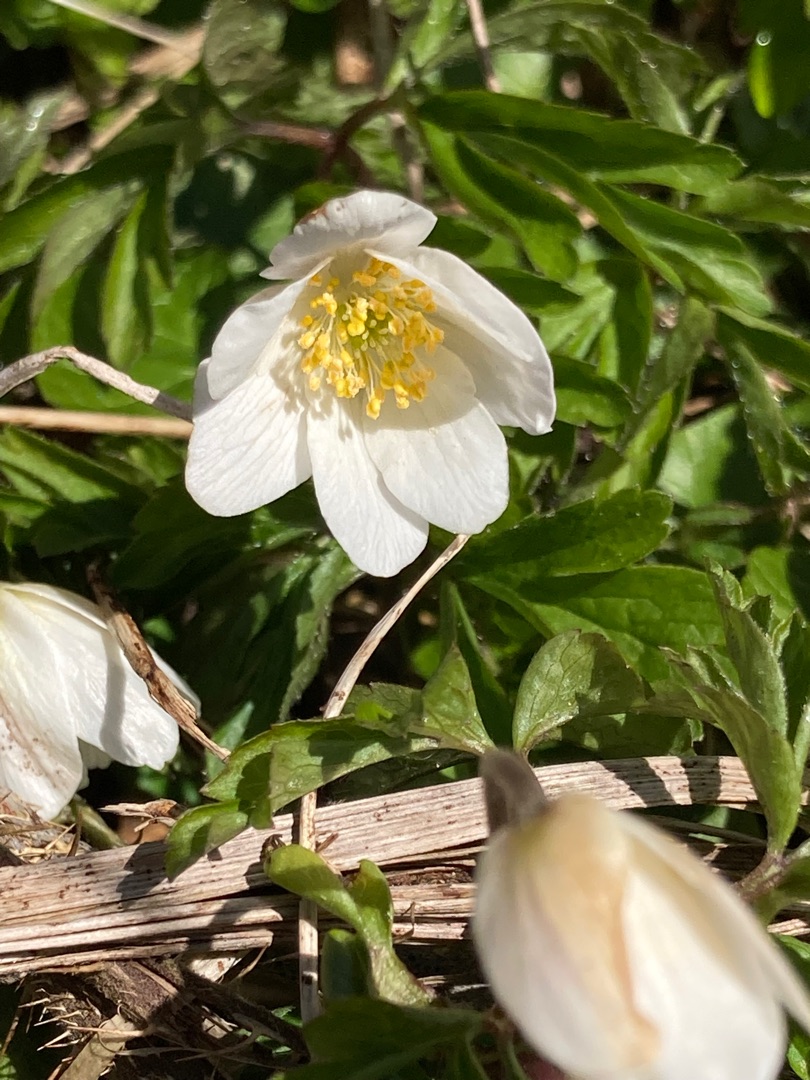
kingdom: Plantae
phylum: Tracheophyta
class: Magnoliopsida
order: Ranunculales
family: Ranunculaceae
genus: Anemone
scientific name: Anemone nemorosa
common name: Hvid anemone
